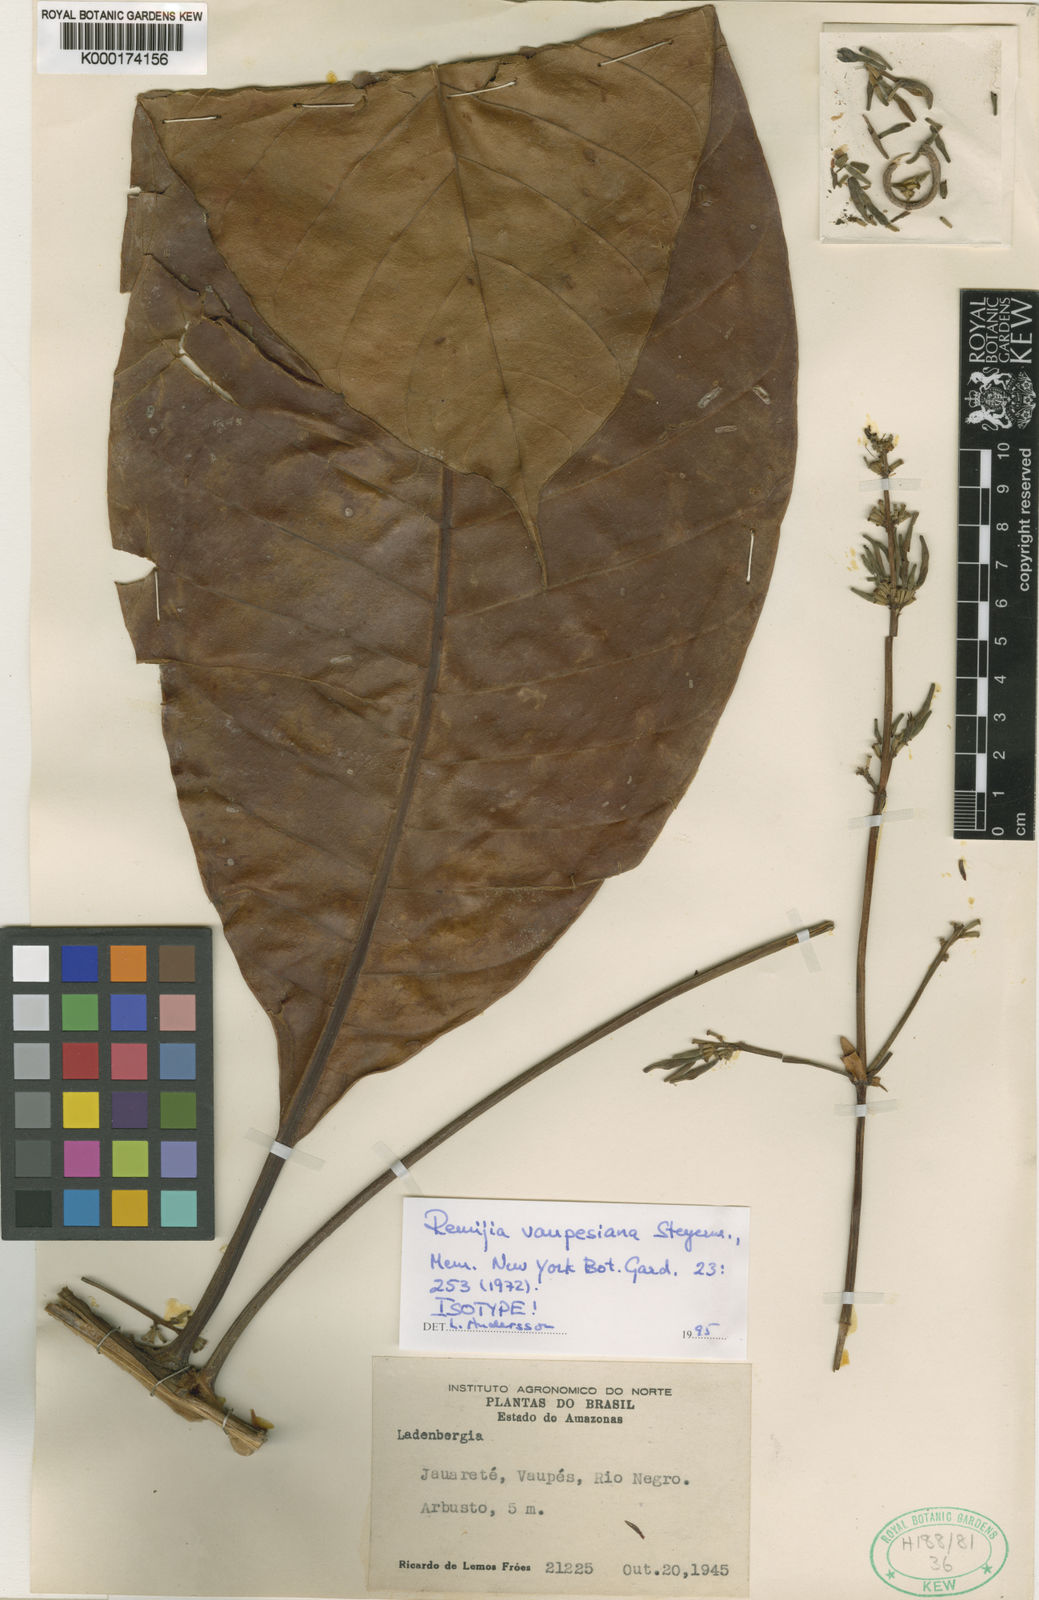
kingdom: Plantae
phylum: Tracheophyta
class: Magnoliopsida
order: Gentianales
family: Rubiaceae
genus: Remijia
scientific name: Remijia vaupesiana
